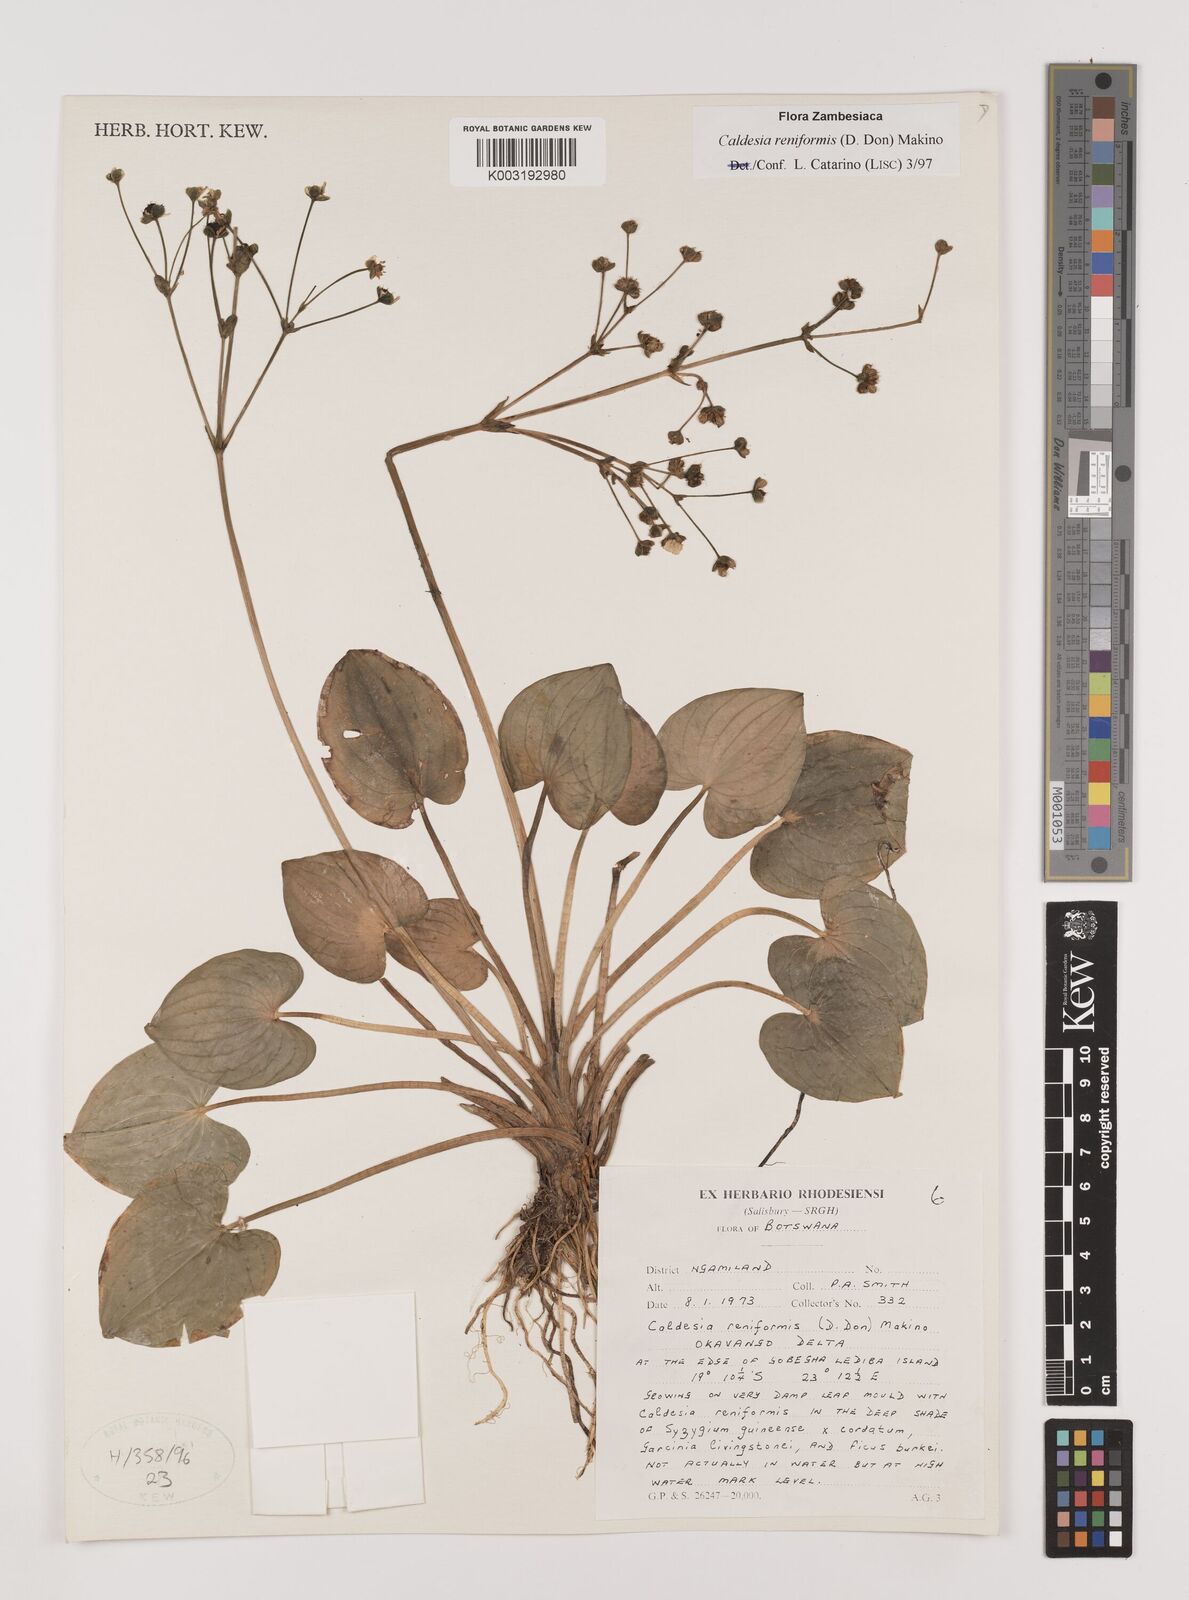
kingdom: Plantae
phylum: Tracheophyta
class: Liliopsida
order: Alismatales
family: Alismataceae
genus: Caldesia
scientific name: Caldesia parnassifolia
